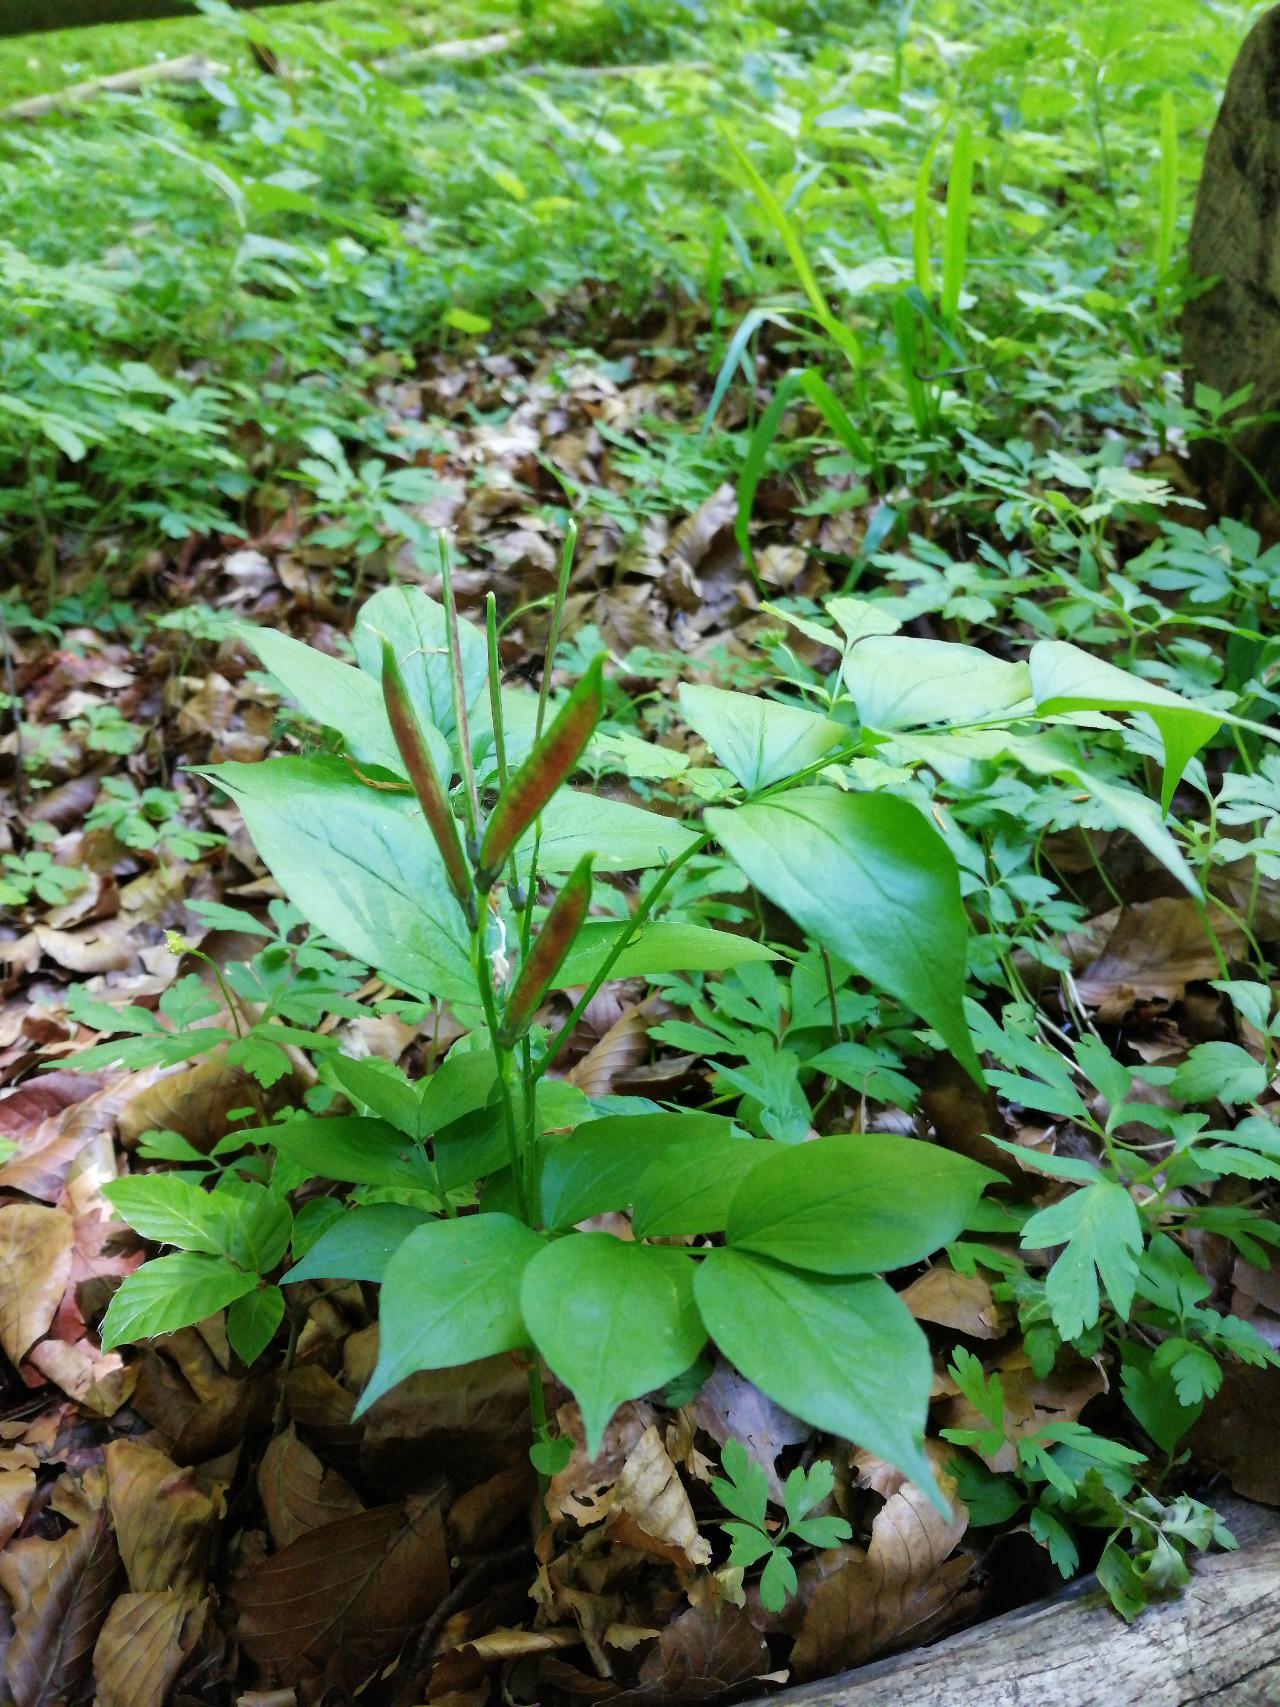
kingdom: Plantae
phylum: Tracheophyta
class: Magnoliopsida
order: Fabales
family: Fabaceae
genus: Lathyrus
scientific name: Lathyrus vernus
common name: Vår-fladbælg
